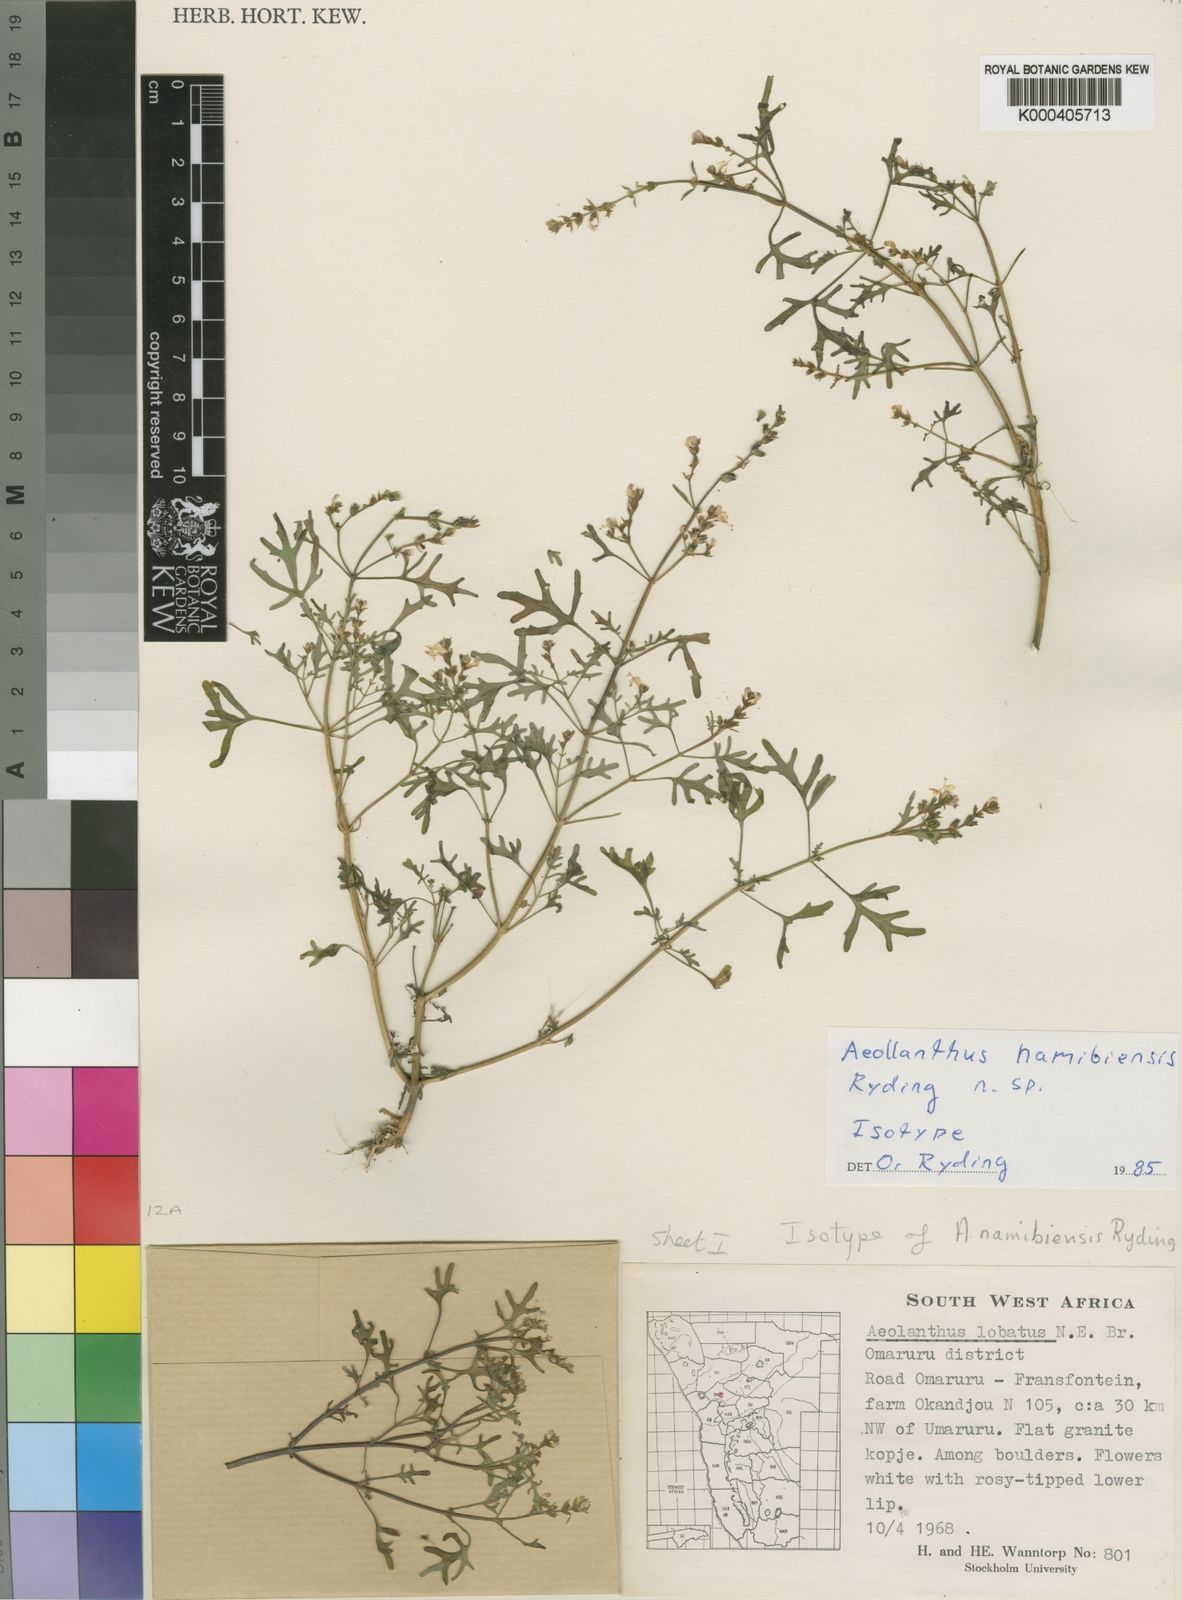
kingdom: Plantae
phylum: Tracheophyta
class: Magnoliopsida
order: Lamiales
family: Lamiaceae
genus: Aeollanthus
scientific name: Aeollanthus namibiensis
